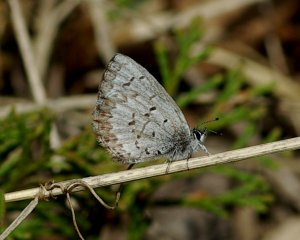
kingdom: Animalia
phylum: Arthropoda
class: Insecta
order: Lepidoptera
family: Lycaenidae
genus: Celastrina
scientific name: Celastrina lucia
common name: Northern Spring Azure
